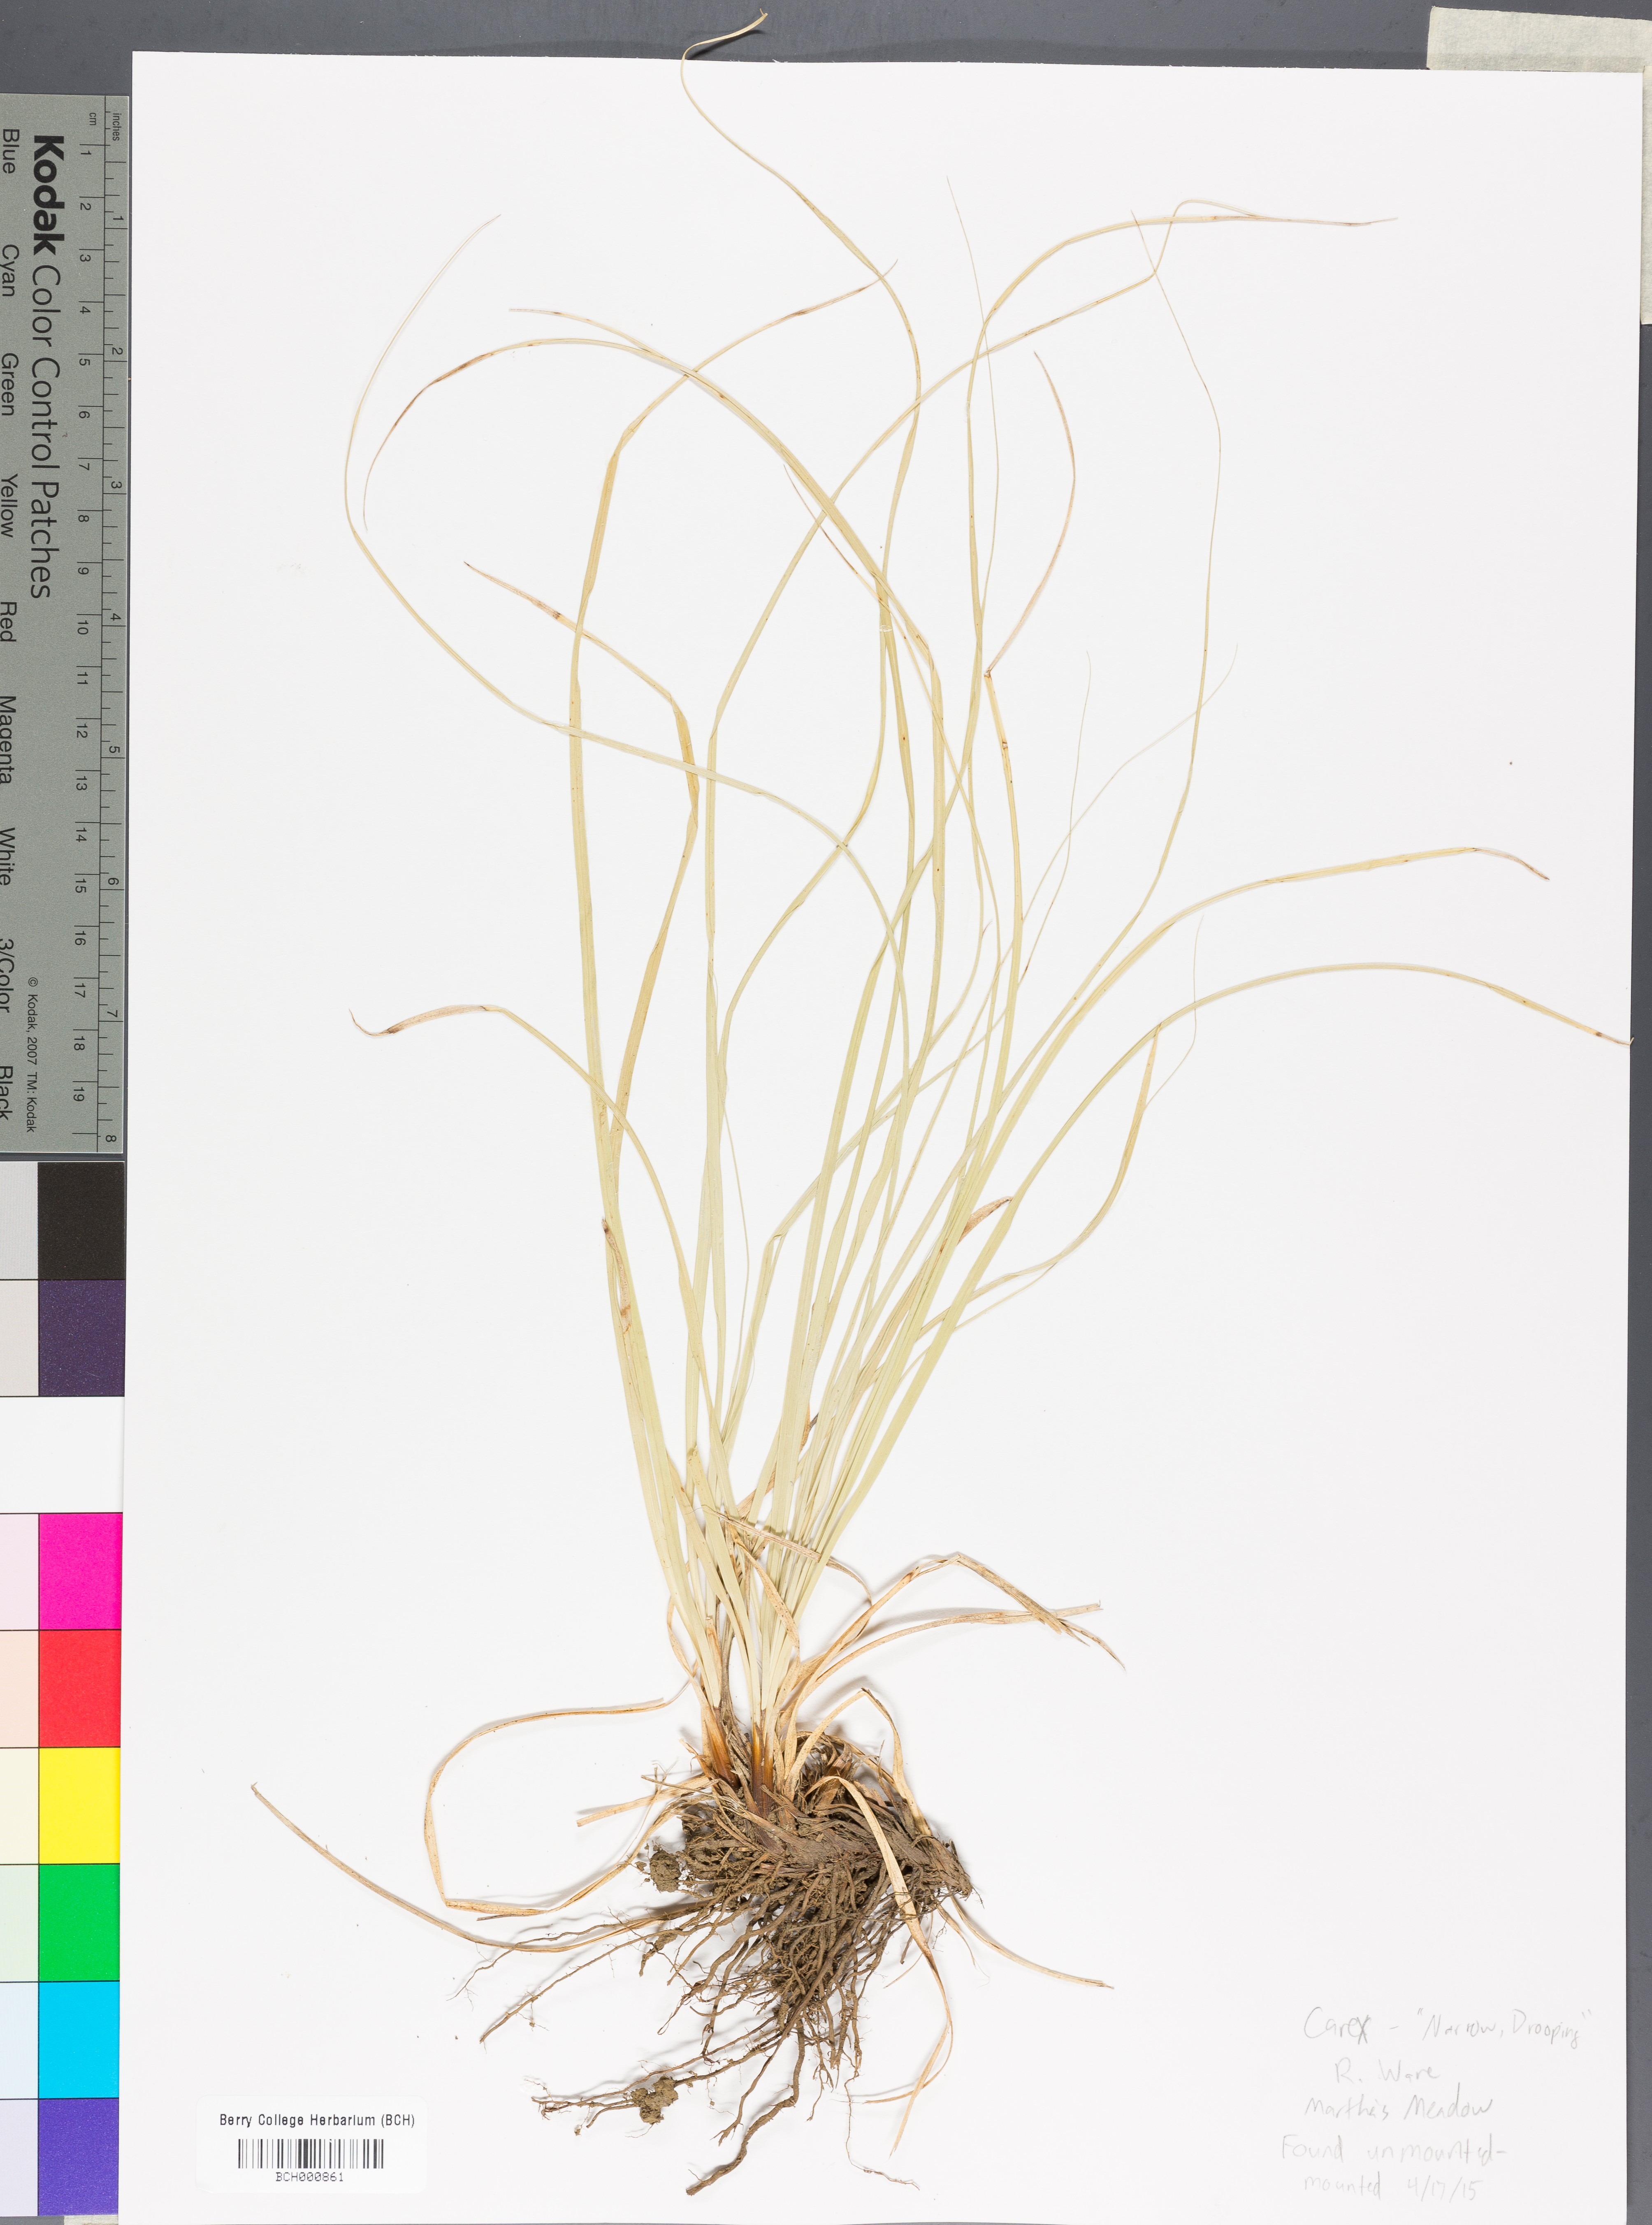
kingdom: Plantae
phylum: Tracheophyta
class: Liliopsida
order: Poales
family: Cyperaceae
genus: Carex
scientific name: Carex
